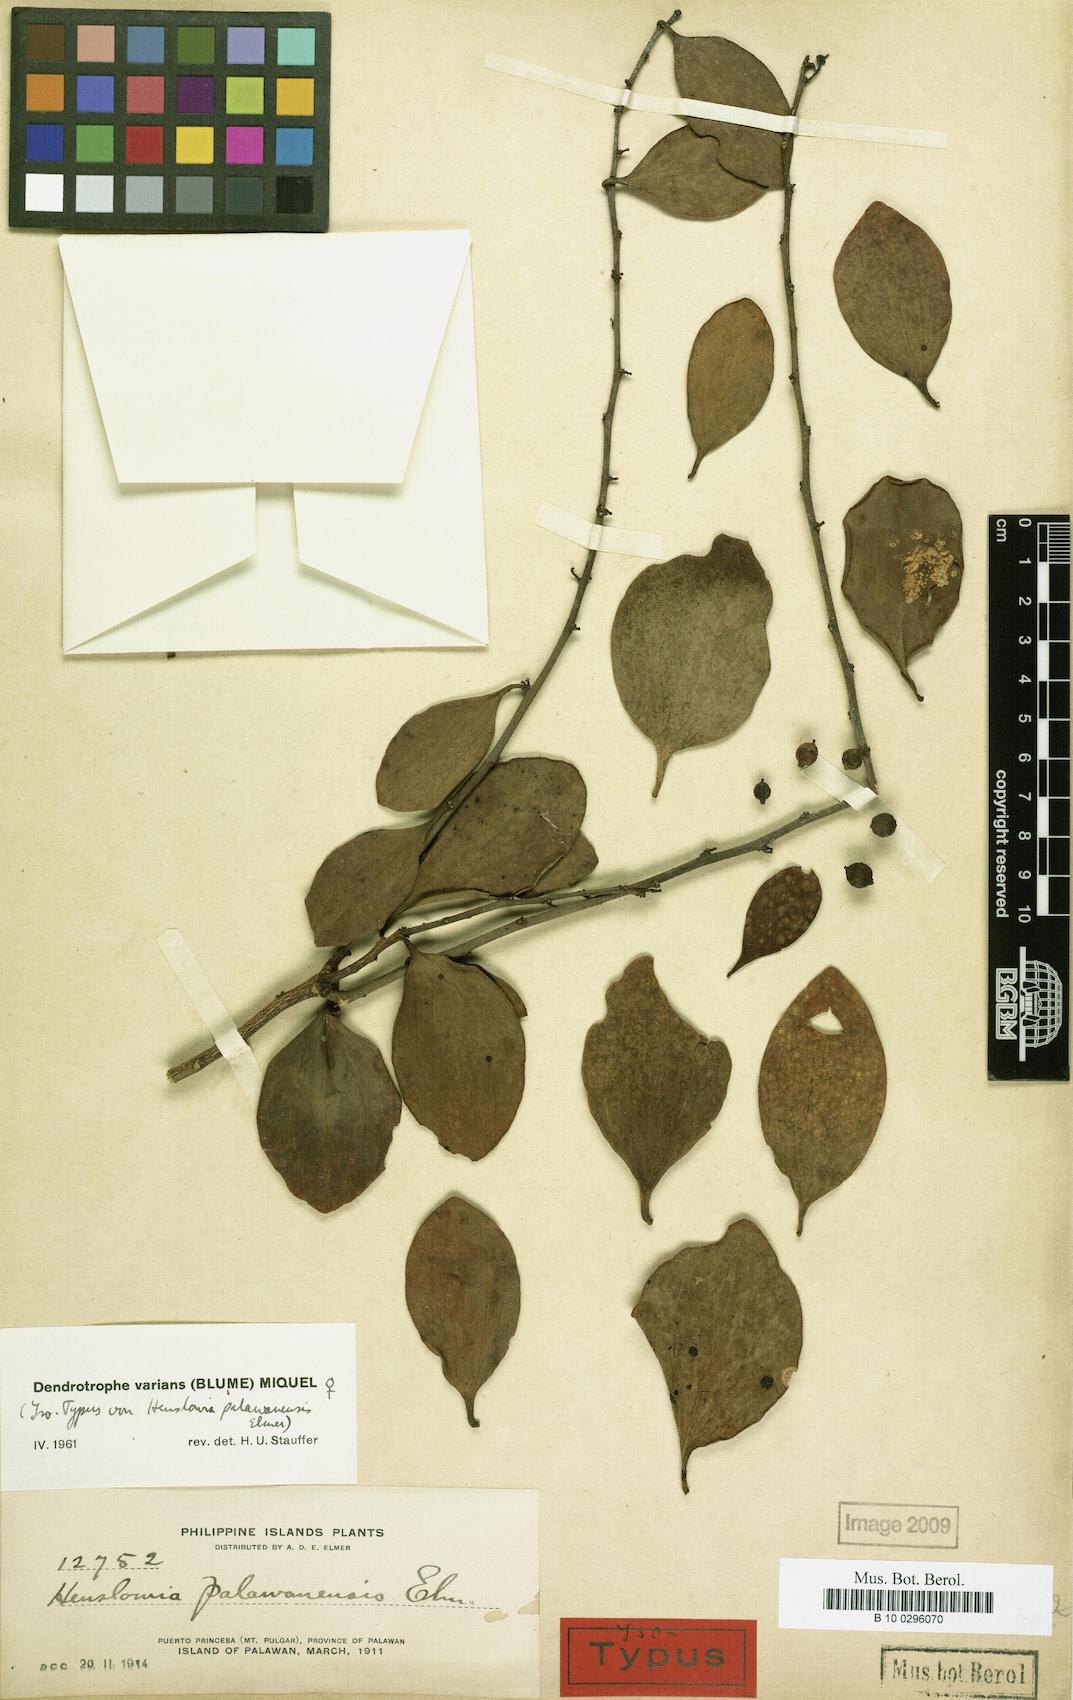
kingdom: Plantae
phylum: Tracheophyta
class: Magnoliopsida
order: Santalales
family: Amphorogynaceae
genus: Dendrotrophe
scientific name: Dendrotrophe varians
